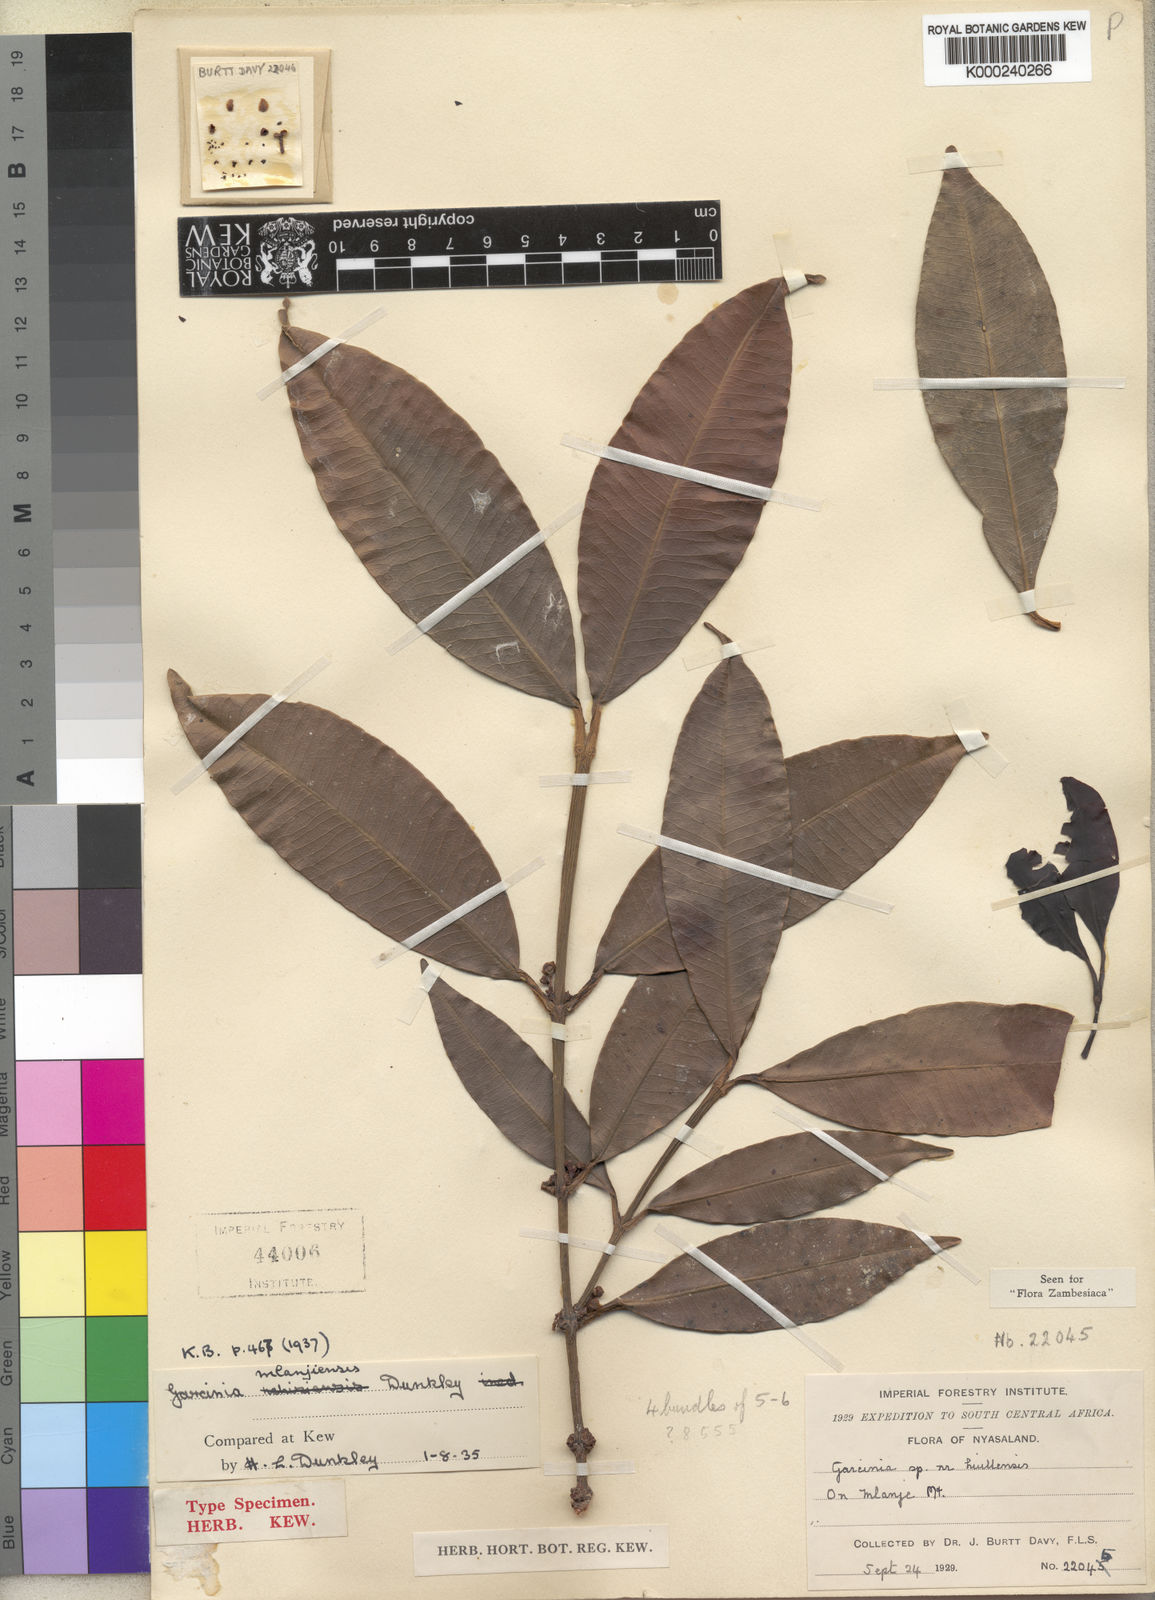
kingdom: Plantae
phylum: Tracheophyta
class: Magnoliopsida
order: Malpighiales
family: Clusiaceae
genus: Garcinia
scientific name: Garcinia kingaensis
